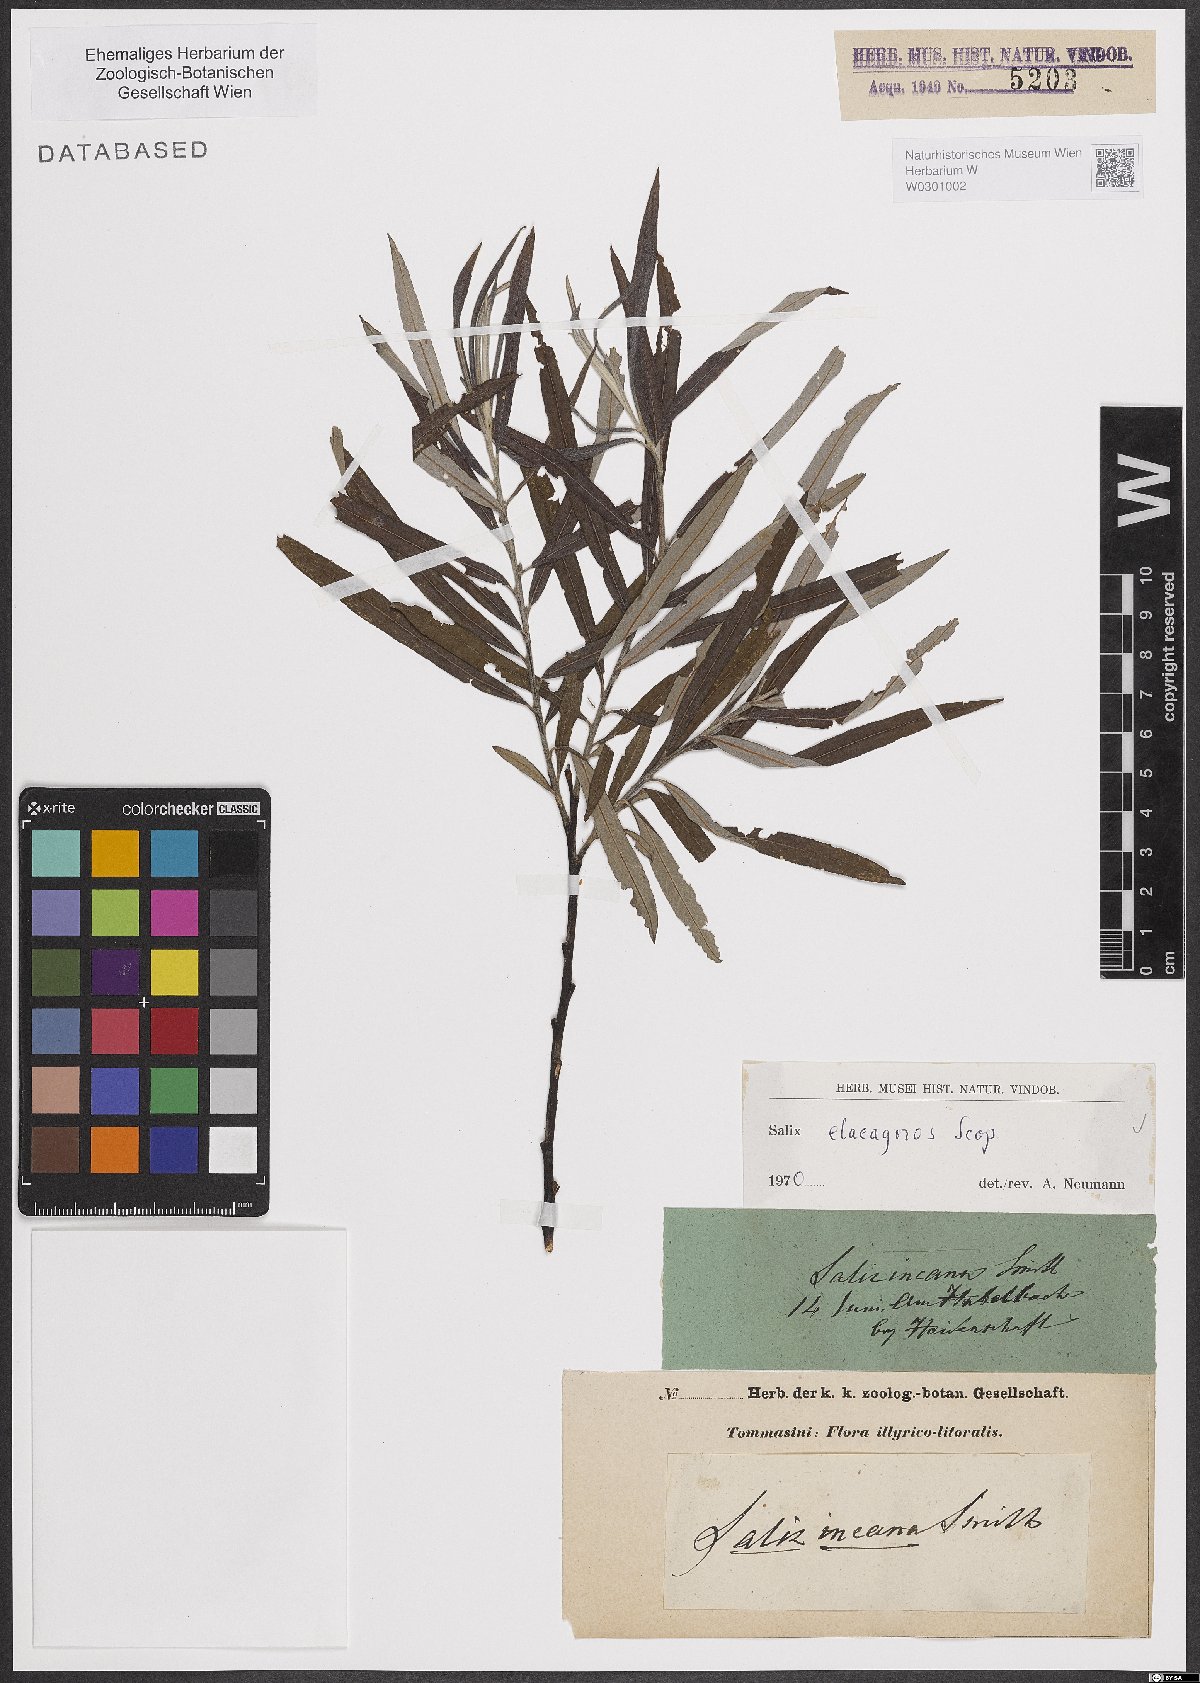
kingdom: Plantae
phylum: Tracheophyta
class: Magnoliopsida
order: Malpighiales
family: Salicaceae
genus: Salix
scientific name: Salix eleagnos
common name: Elaeagnus willow
